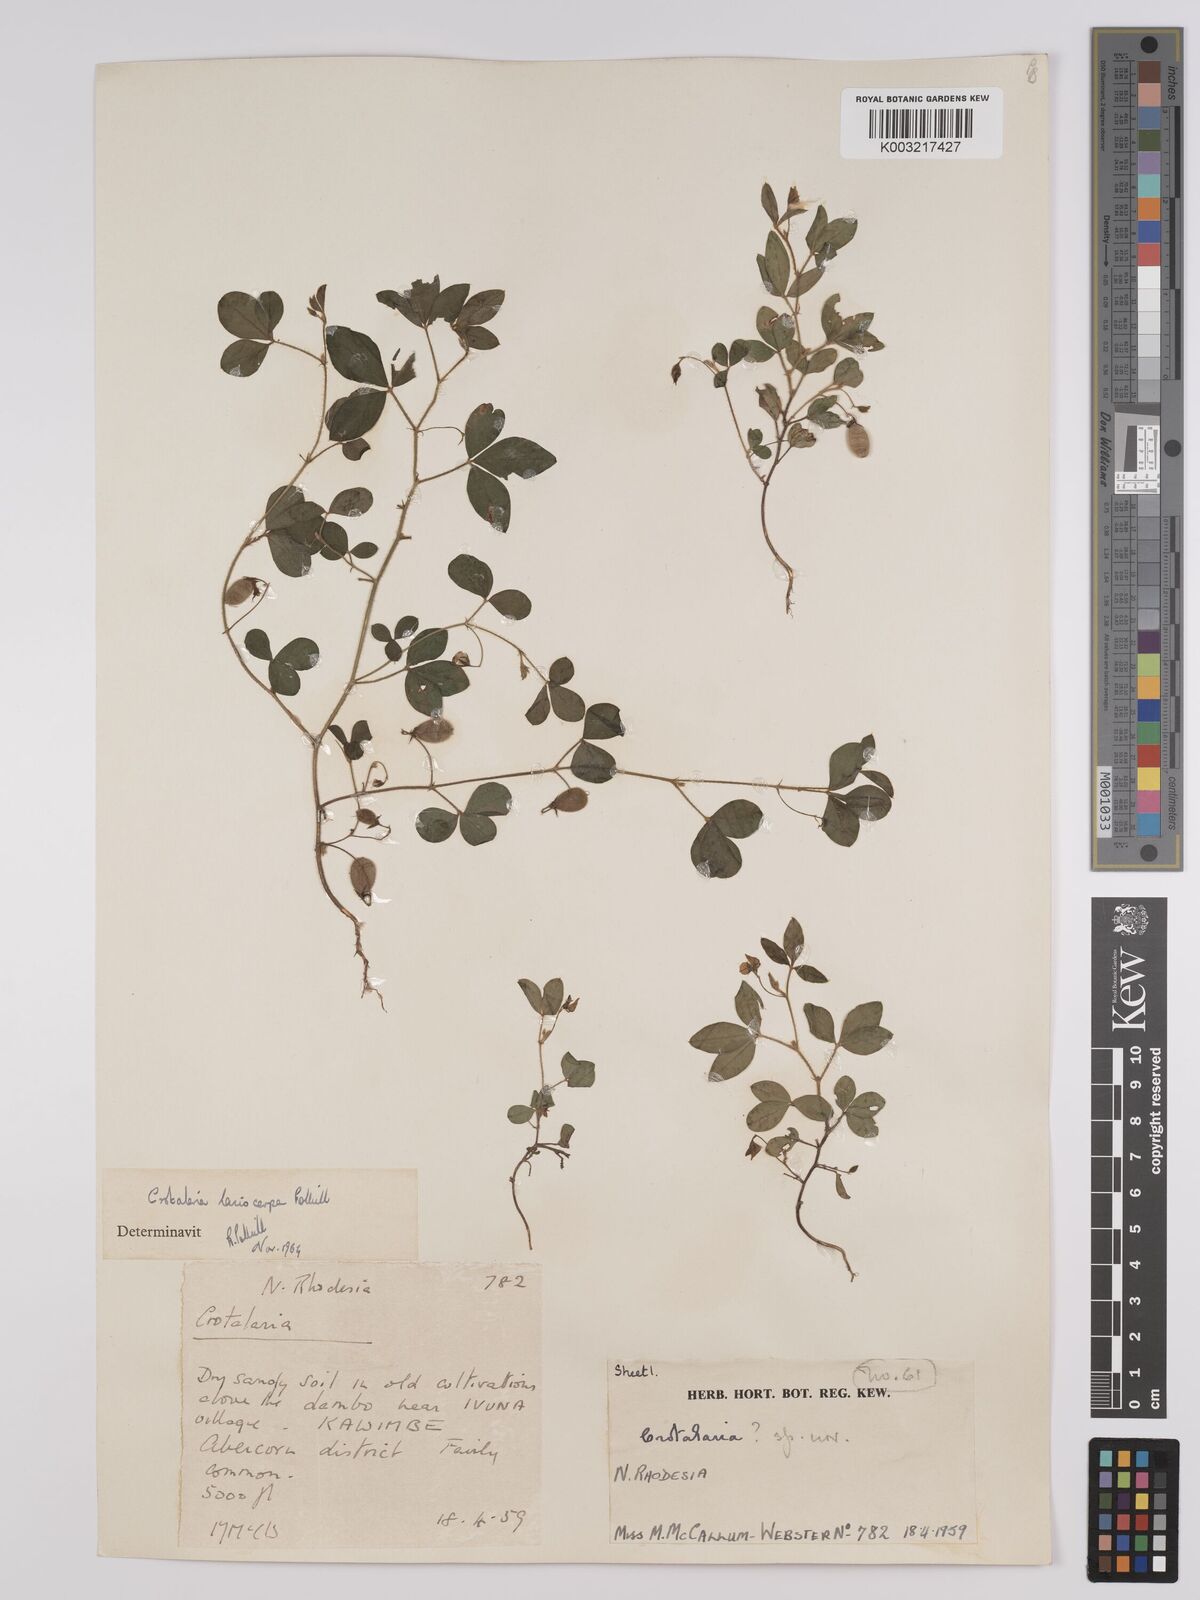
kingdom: Plantae
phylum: Tracheophyta
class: Magnoliopsida
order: Fabales
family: Fabaceae
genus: Crotalaria
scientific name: Crotalaria lasiocarpa
